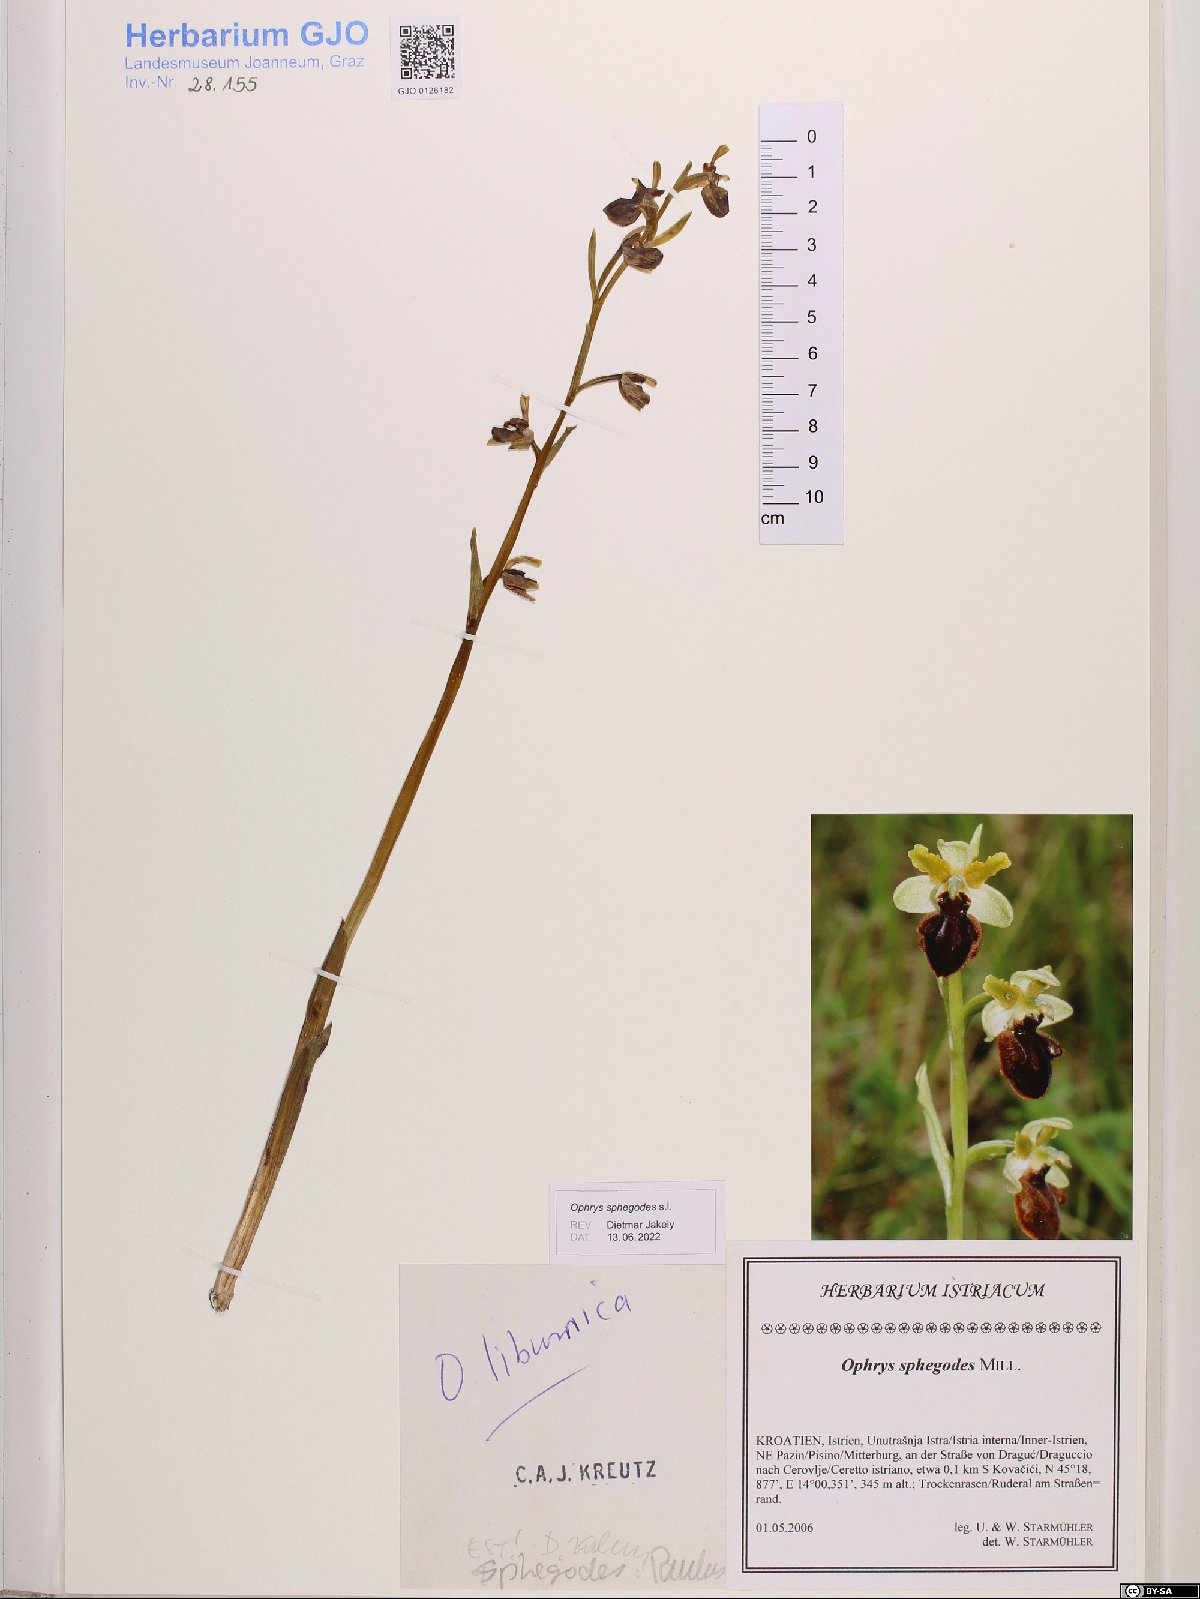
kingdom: Plantae
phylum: Tracheophyta
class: Liliopsida
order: Asparagales
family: Orchidaceae
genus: Ophrys
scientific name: Ophrys sphegodes
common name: Early spider-orchid
